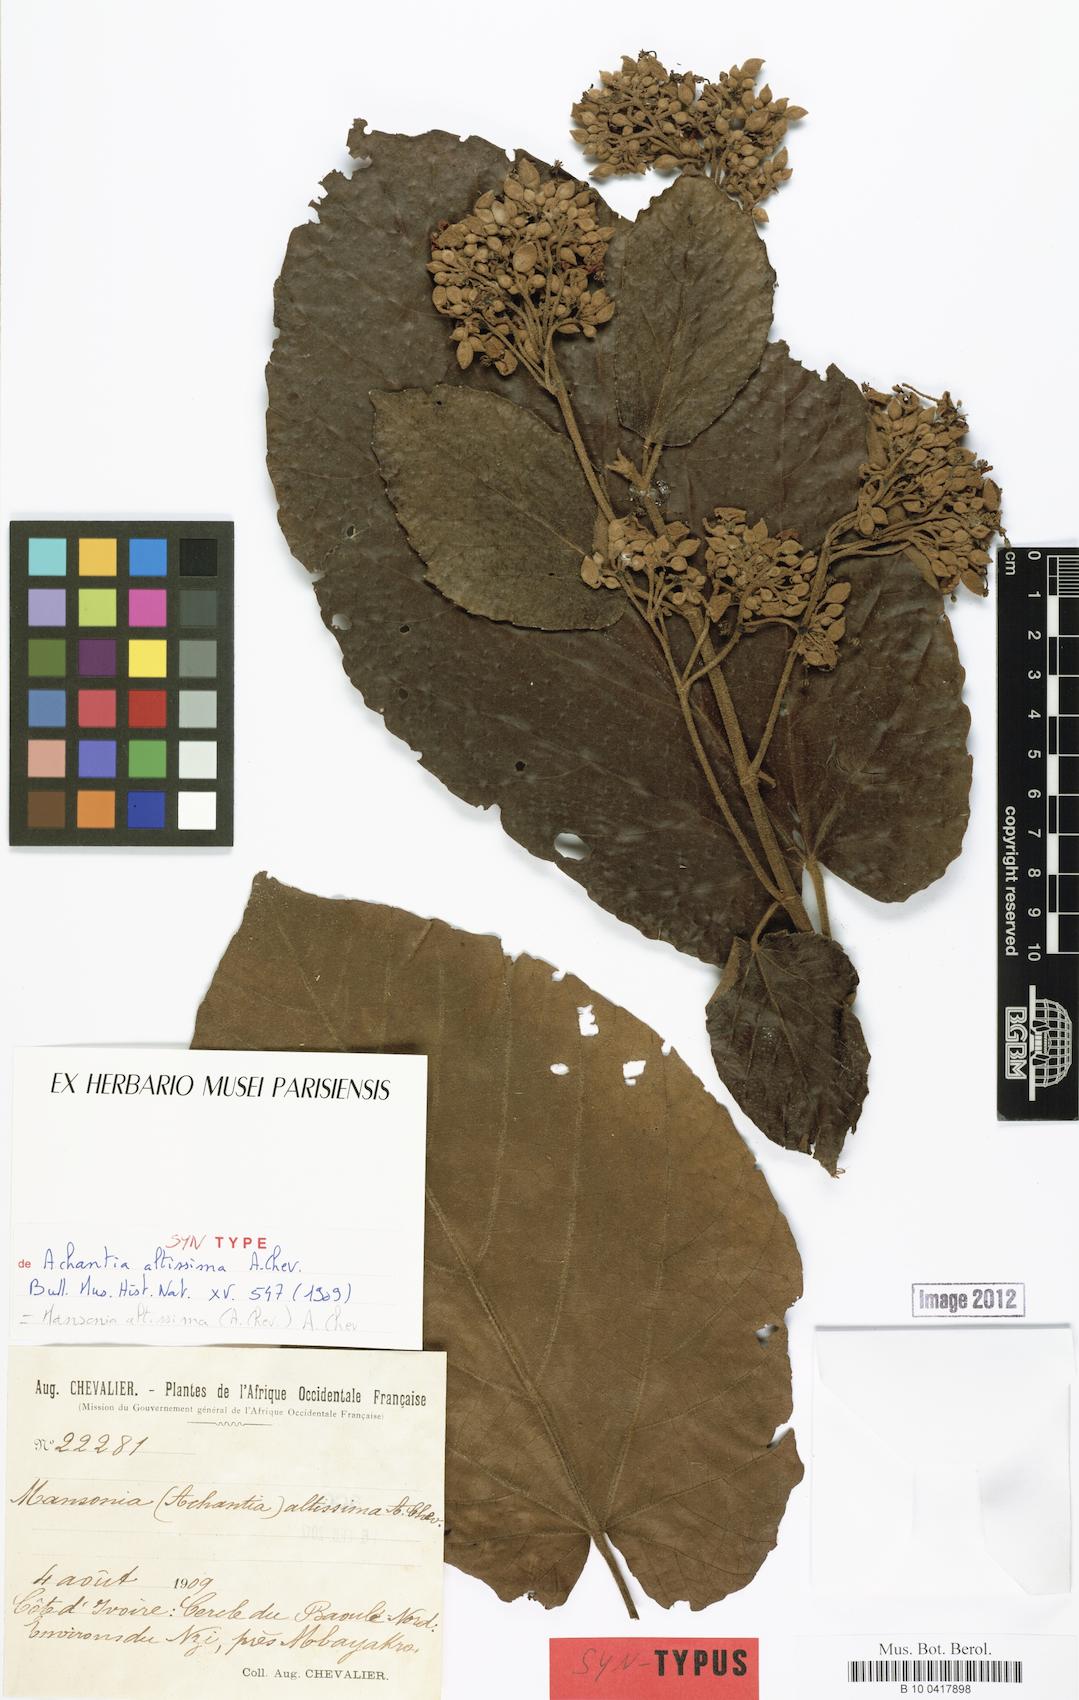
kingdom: Plantae
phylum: Tracheophyta
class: Magnoliopsida
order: Malvales
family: Malvaceae
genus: Mansonia
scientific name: Mansonia altissima
